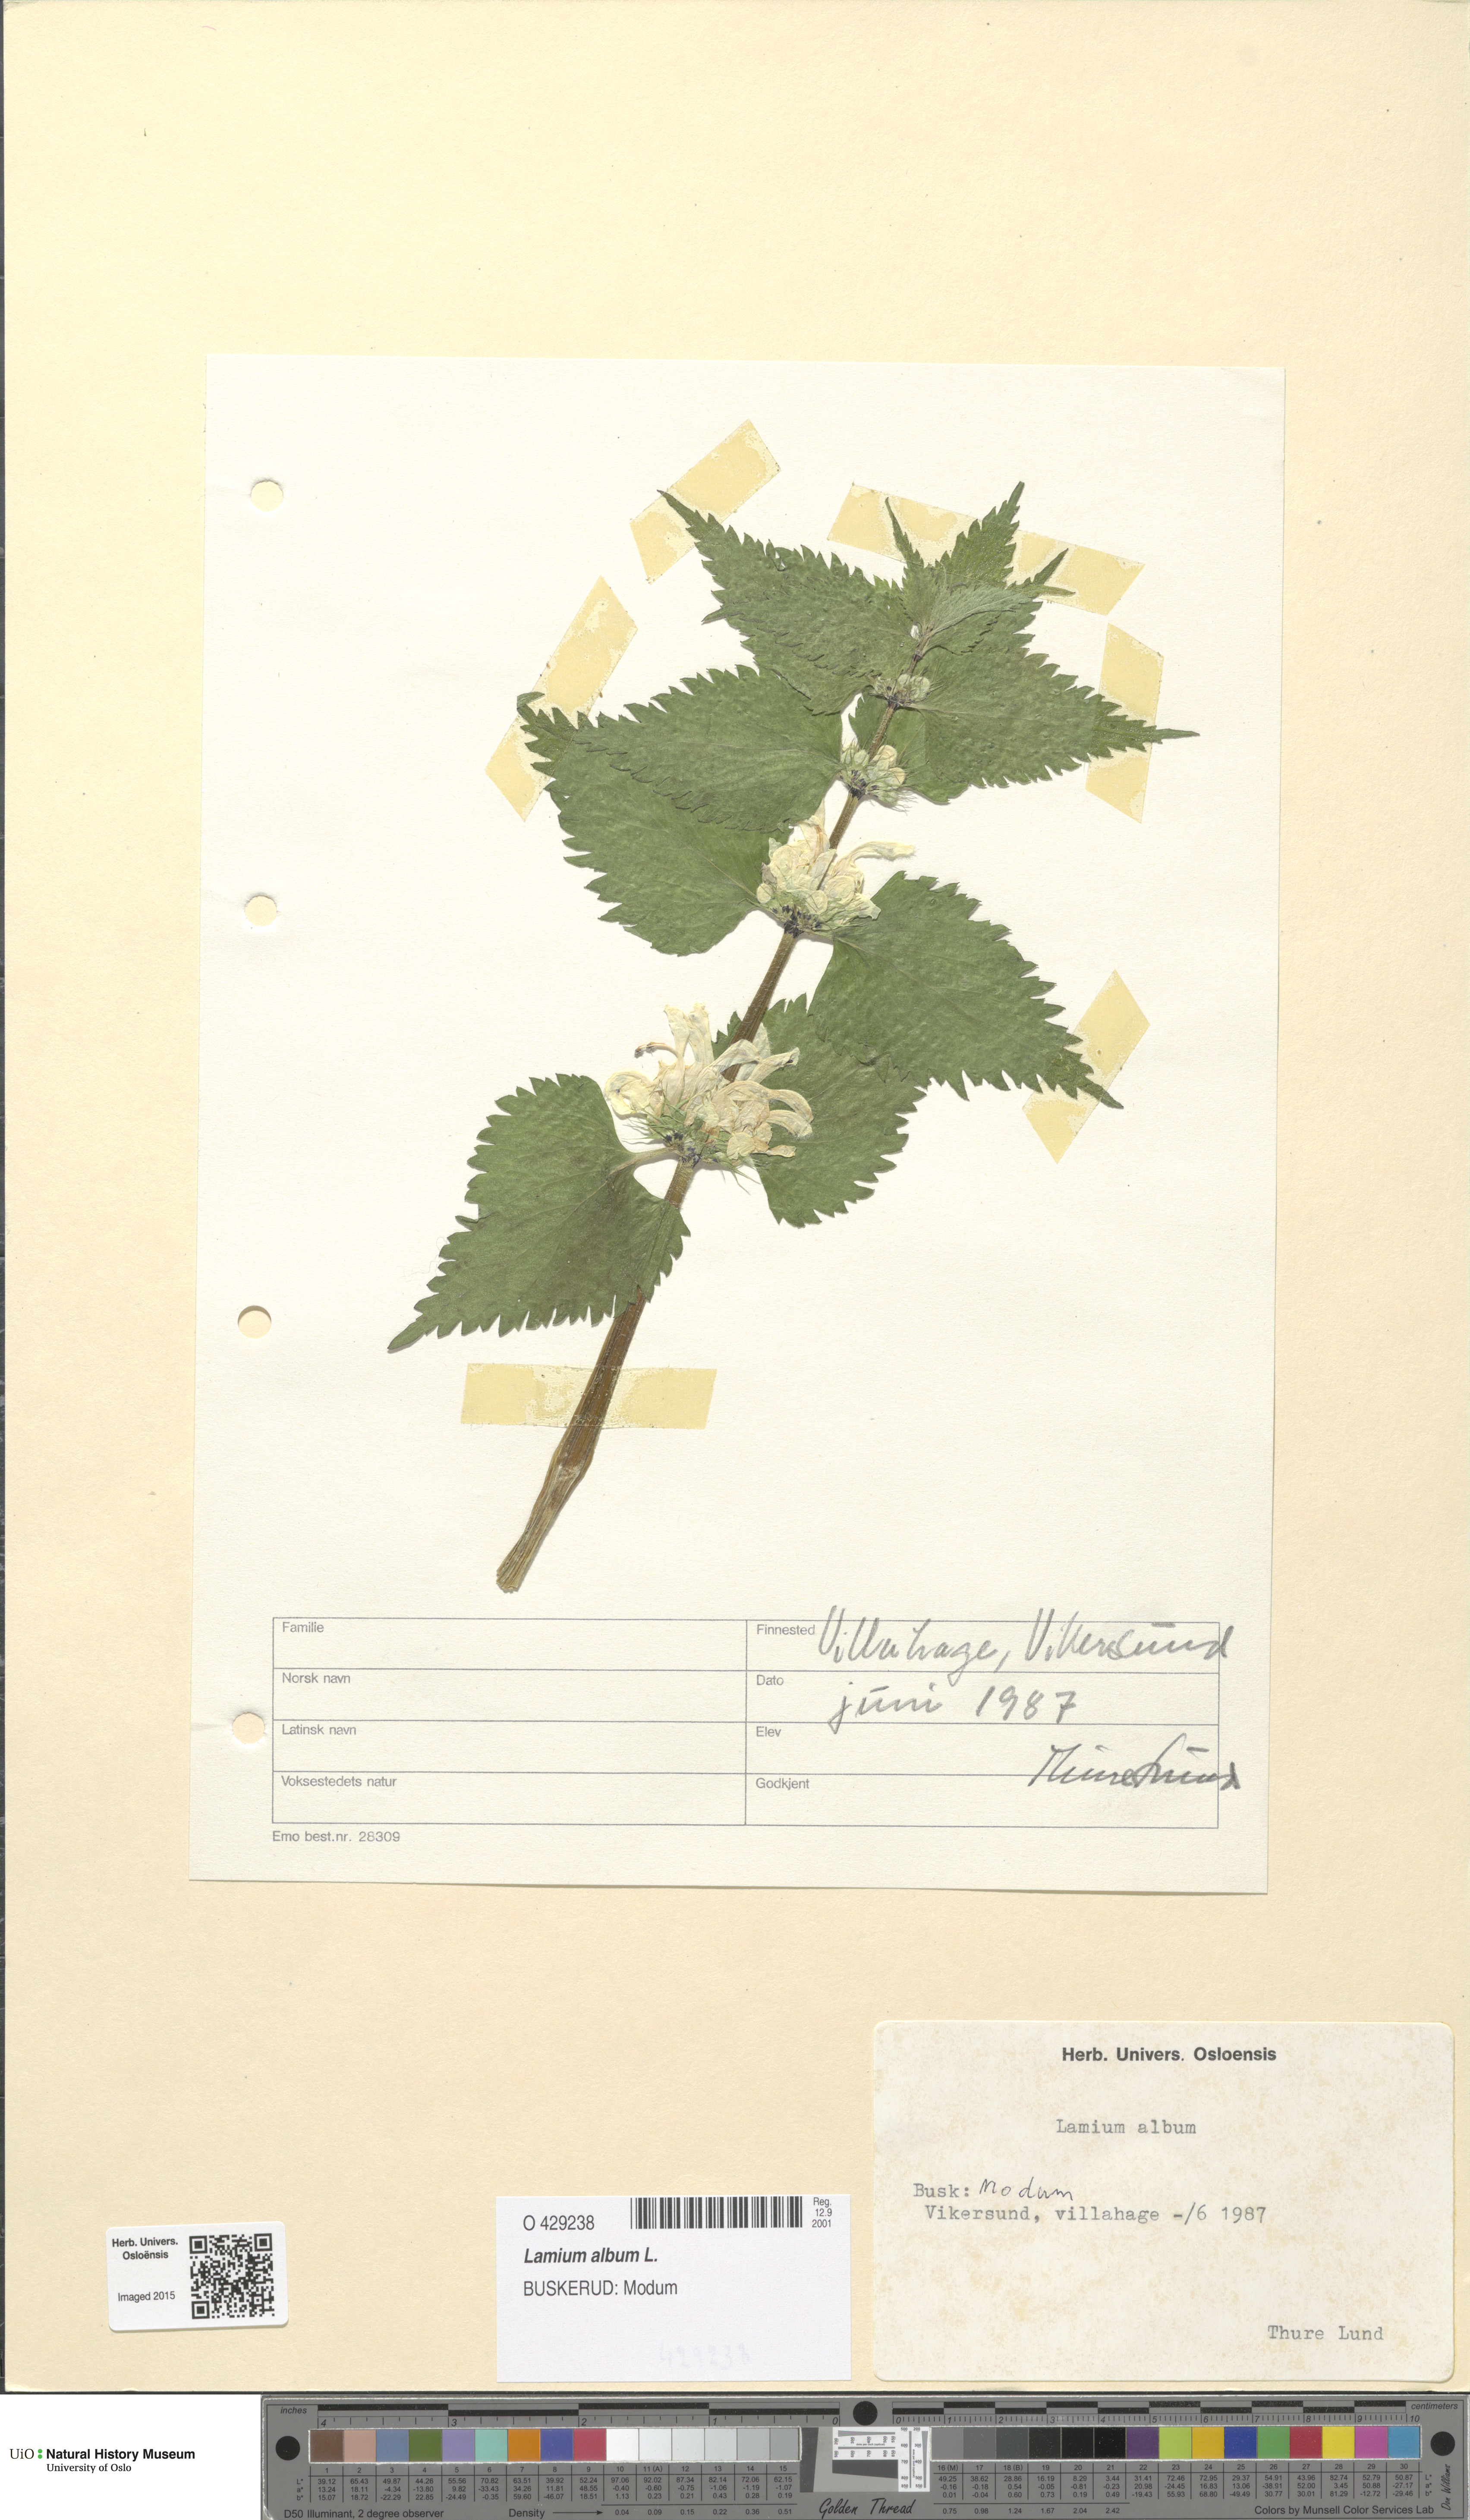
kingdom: Plantae
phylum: Tracheophyta
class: Magnoliopsida
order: Lamiales
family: Lamiaceae
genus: Lamium
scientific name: Lamium album
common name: White dead-nettle
